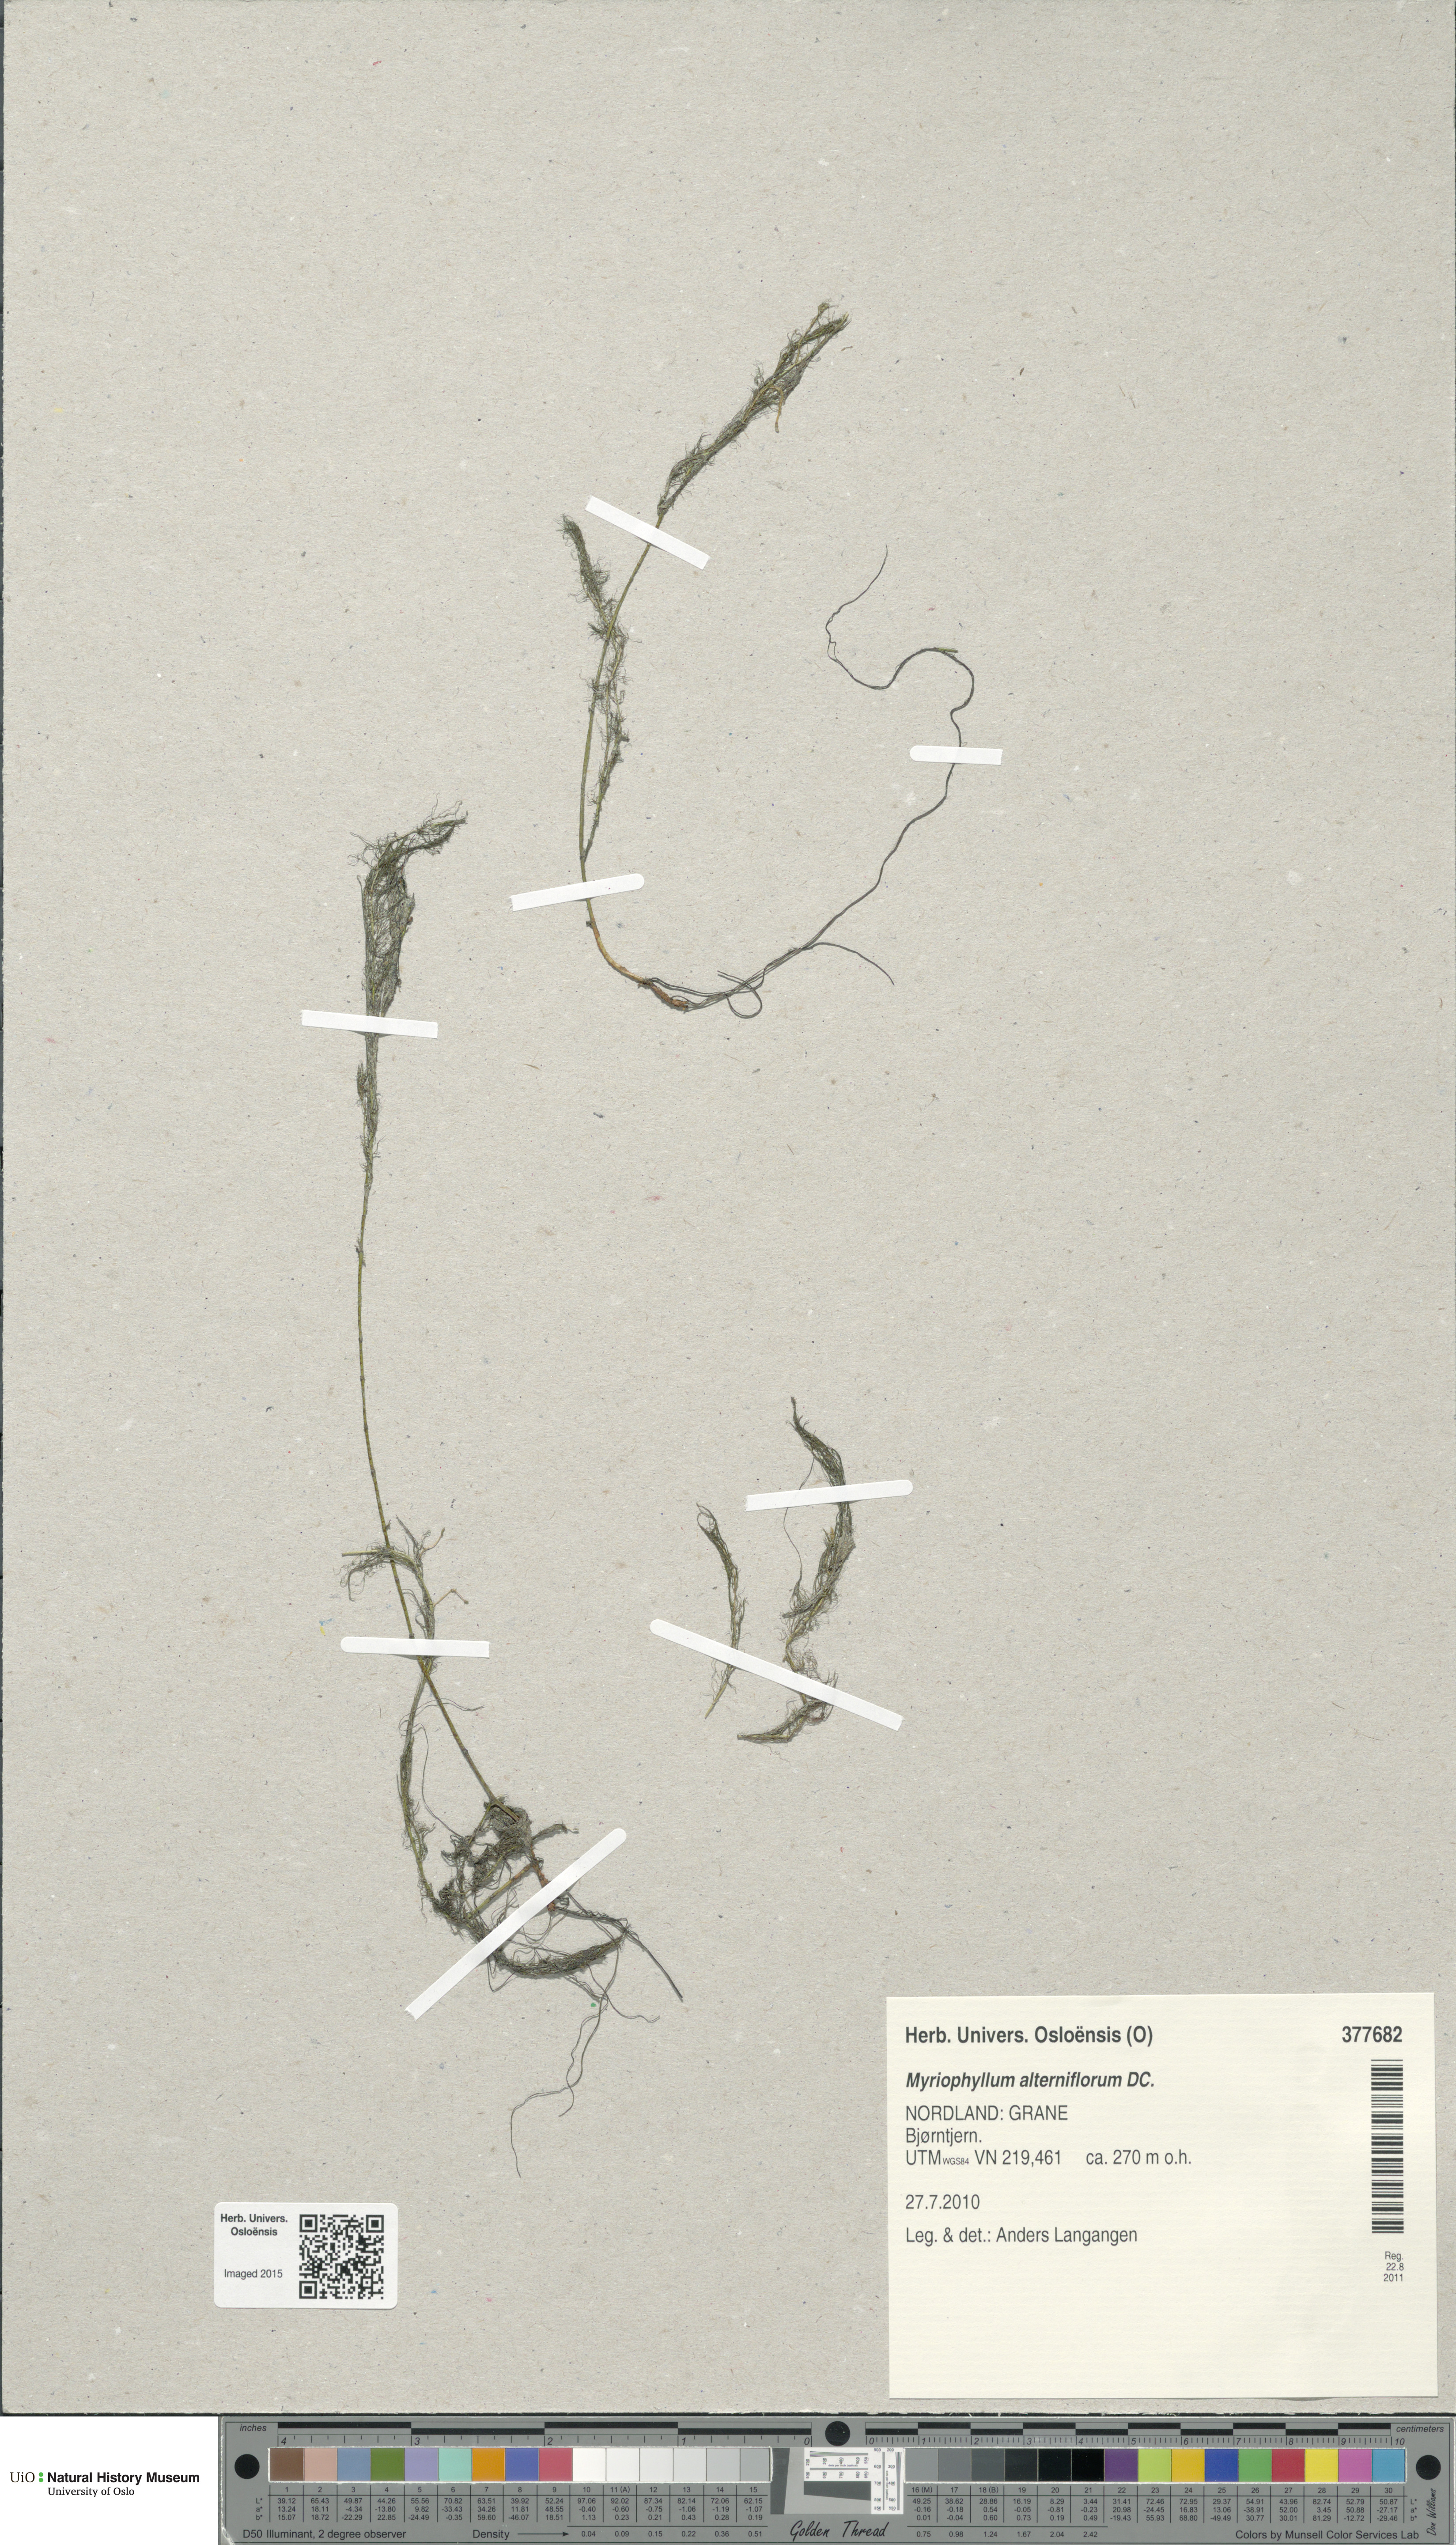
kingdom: Plantae
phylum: Tracheophyta
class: Magnoliopsida
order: Saxifragales
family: Haloragaceae
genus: Myriophyllum
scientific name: Myriophyllum alterniflorum
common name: Alternate water-milfoil
